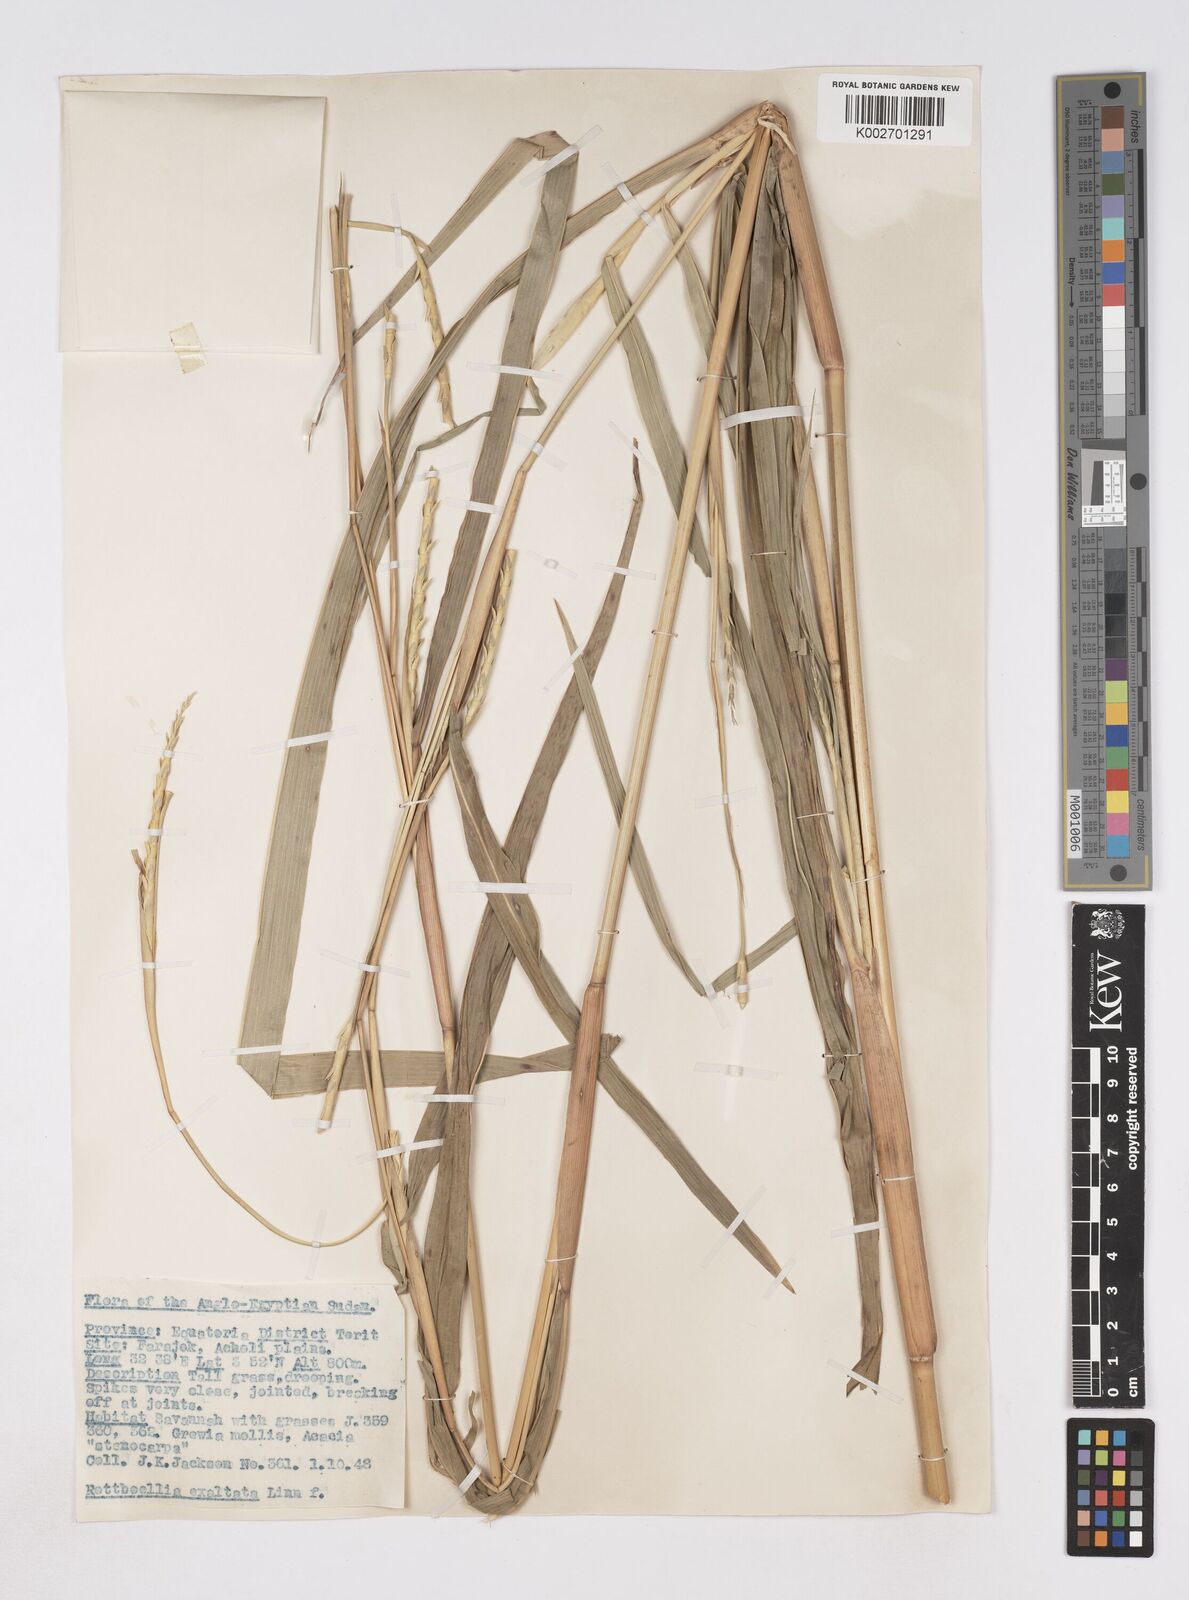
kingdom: Plantae
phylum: Tracheophyta
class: Liliopsida
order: Poales
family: Poaceae
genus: Rottboellia
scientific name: Rottboellia cochinchinensis
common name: Itchgrass
